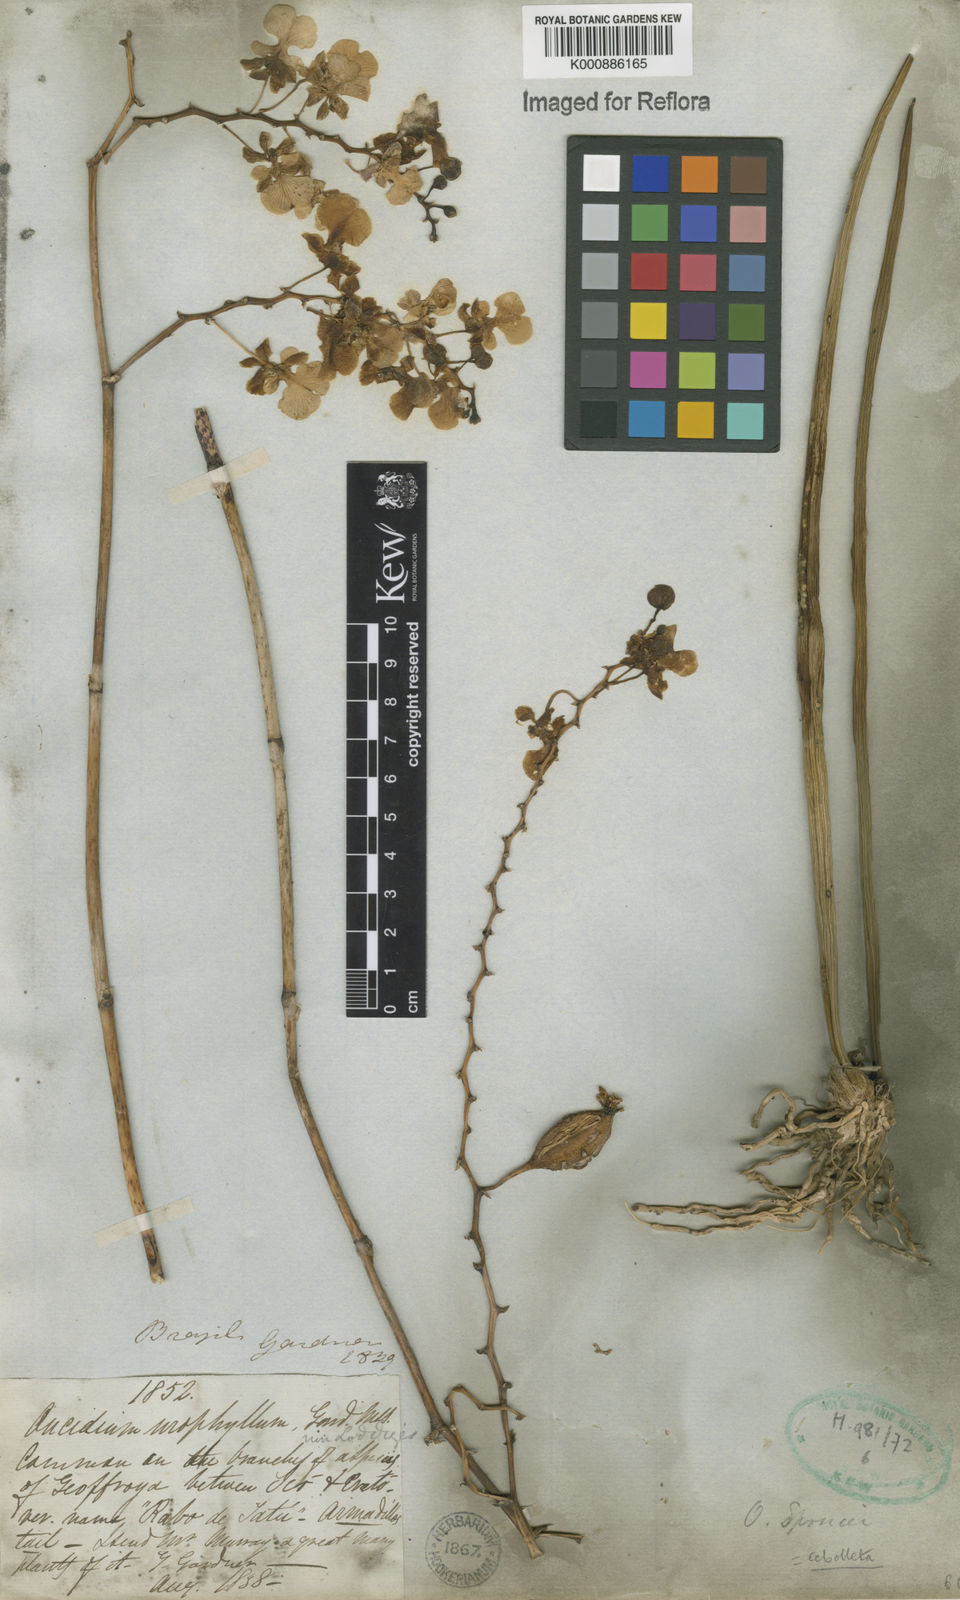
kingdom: Plantae
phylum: Tracheophyta
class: Liliopsida
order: Asparagales
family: Orchidaceae
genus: Trichocentrum
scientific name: Trichocentrum cebolleta
